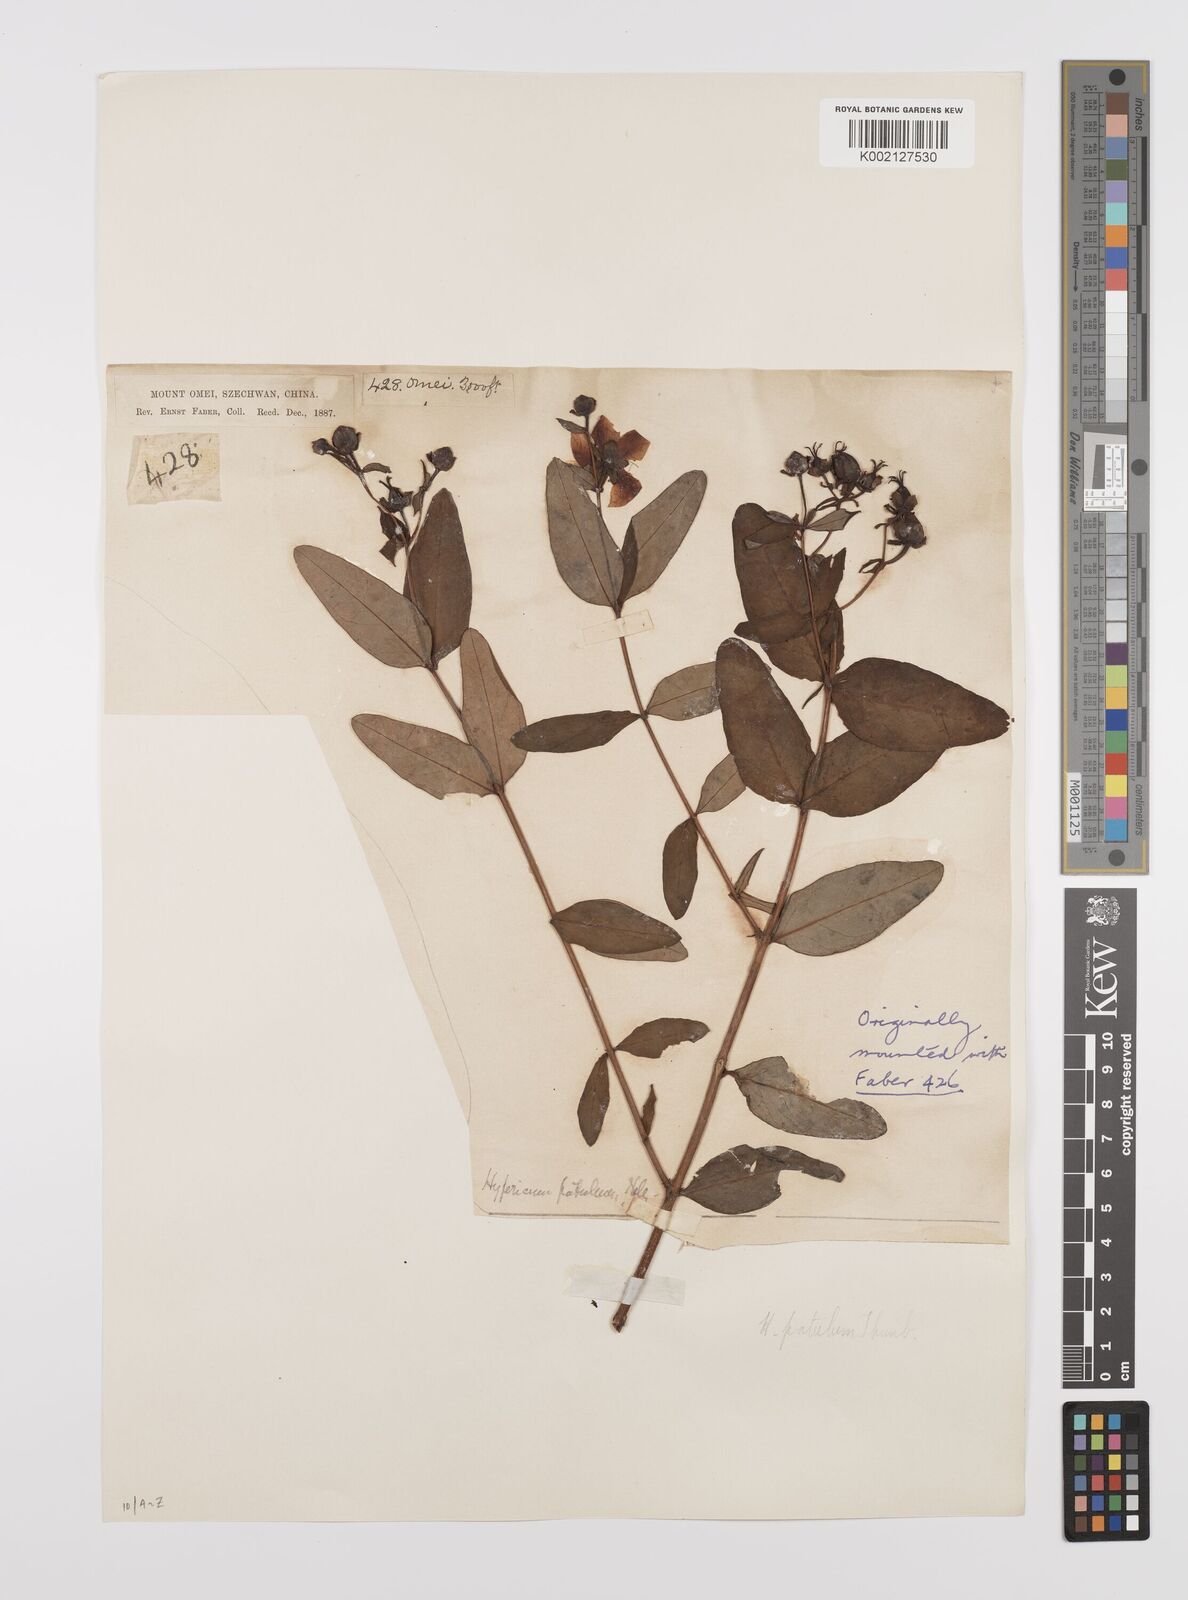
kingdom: Plantae
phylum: Tracheophyta
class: Magnoliopsida
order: Malpighiales
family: Hypericaceae
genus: Hypericum
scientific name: Hypericum patulum
